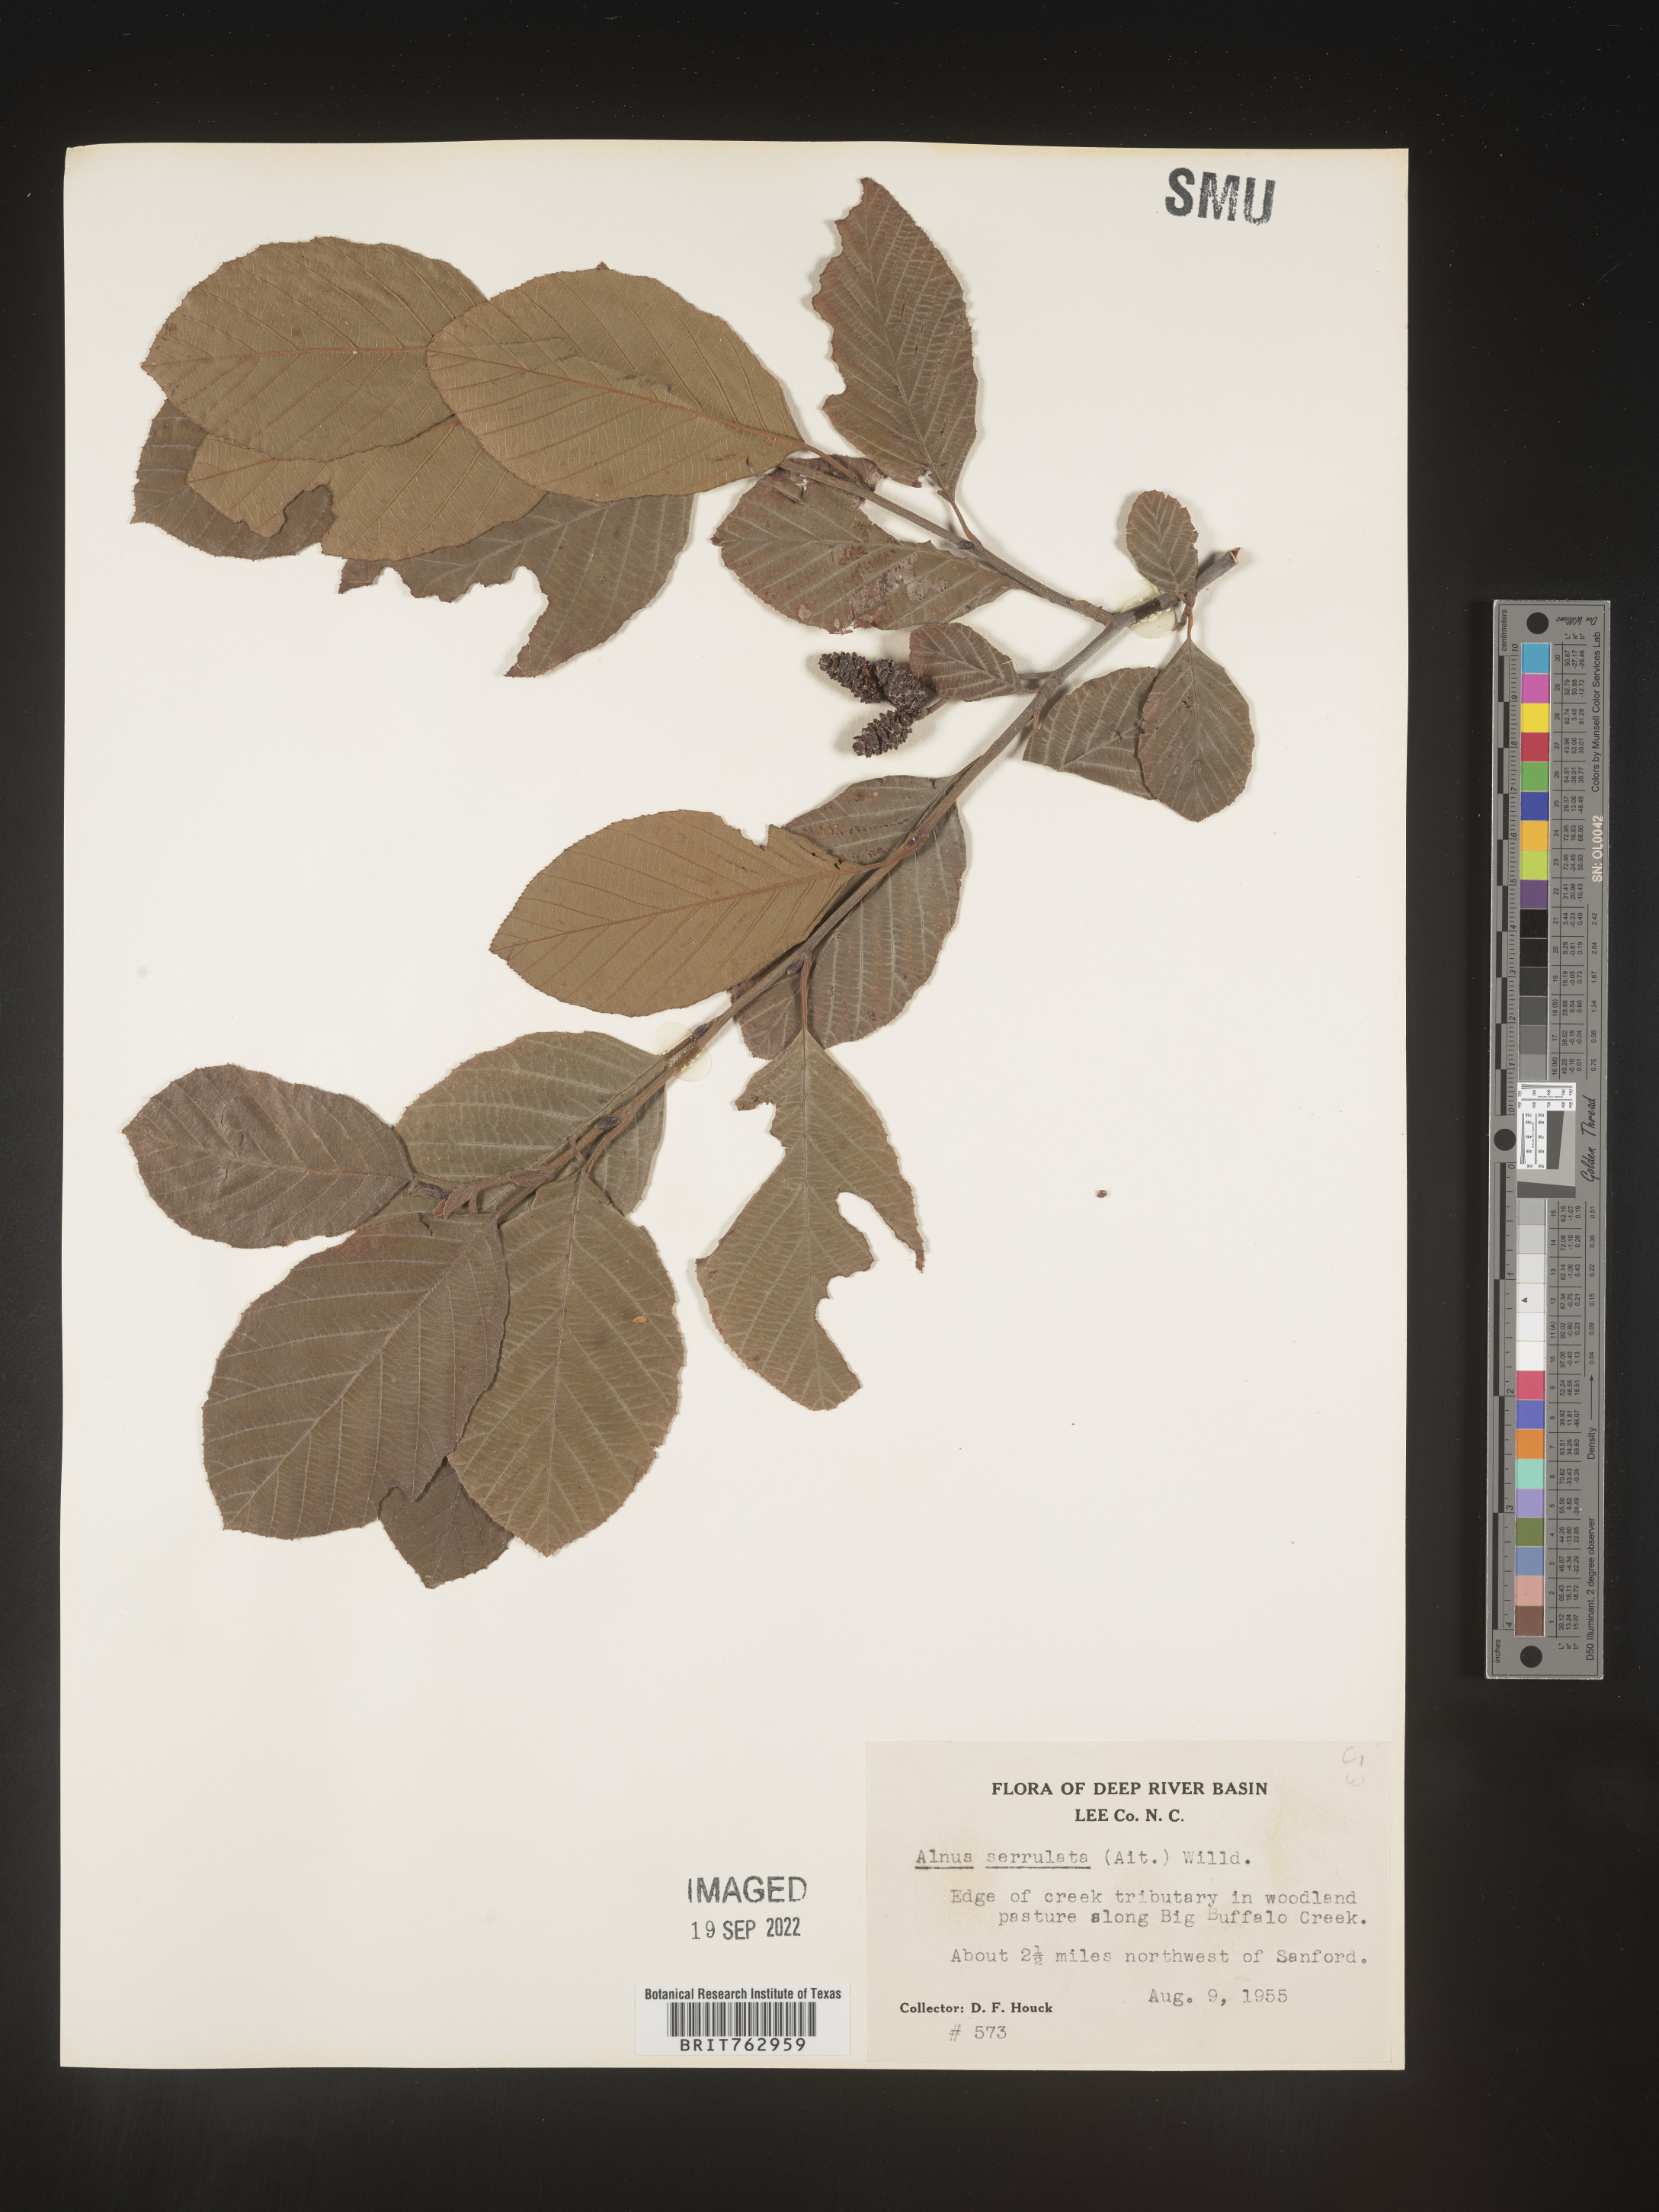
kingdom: Plantae
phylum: Tracheophyta
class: Magnoliopsida
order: Fagales
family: Betulaceae
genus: Alnus
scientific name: Alnus serrulata
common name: Hazel alder
